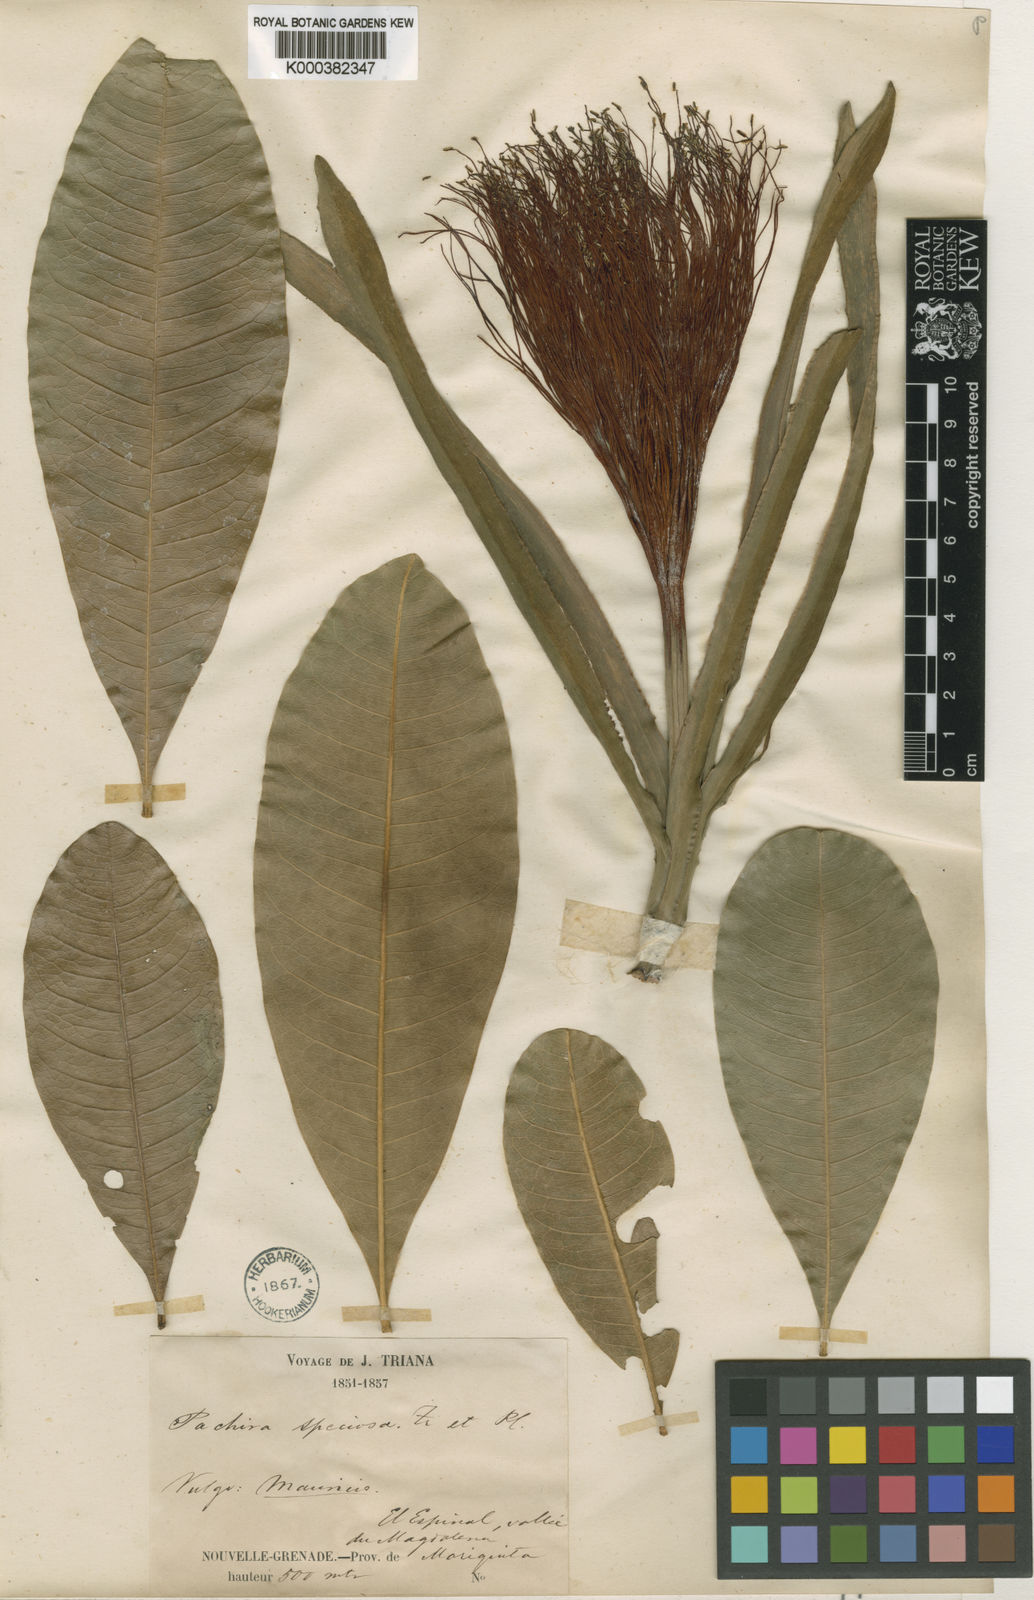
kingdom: Plantae
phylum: Tracheophyta
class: Magnoliopsida
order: Malvales
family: Malvaceae
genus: Pachira
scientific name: Pachira speciosa
